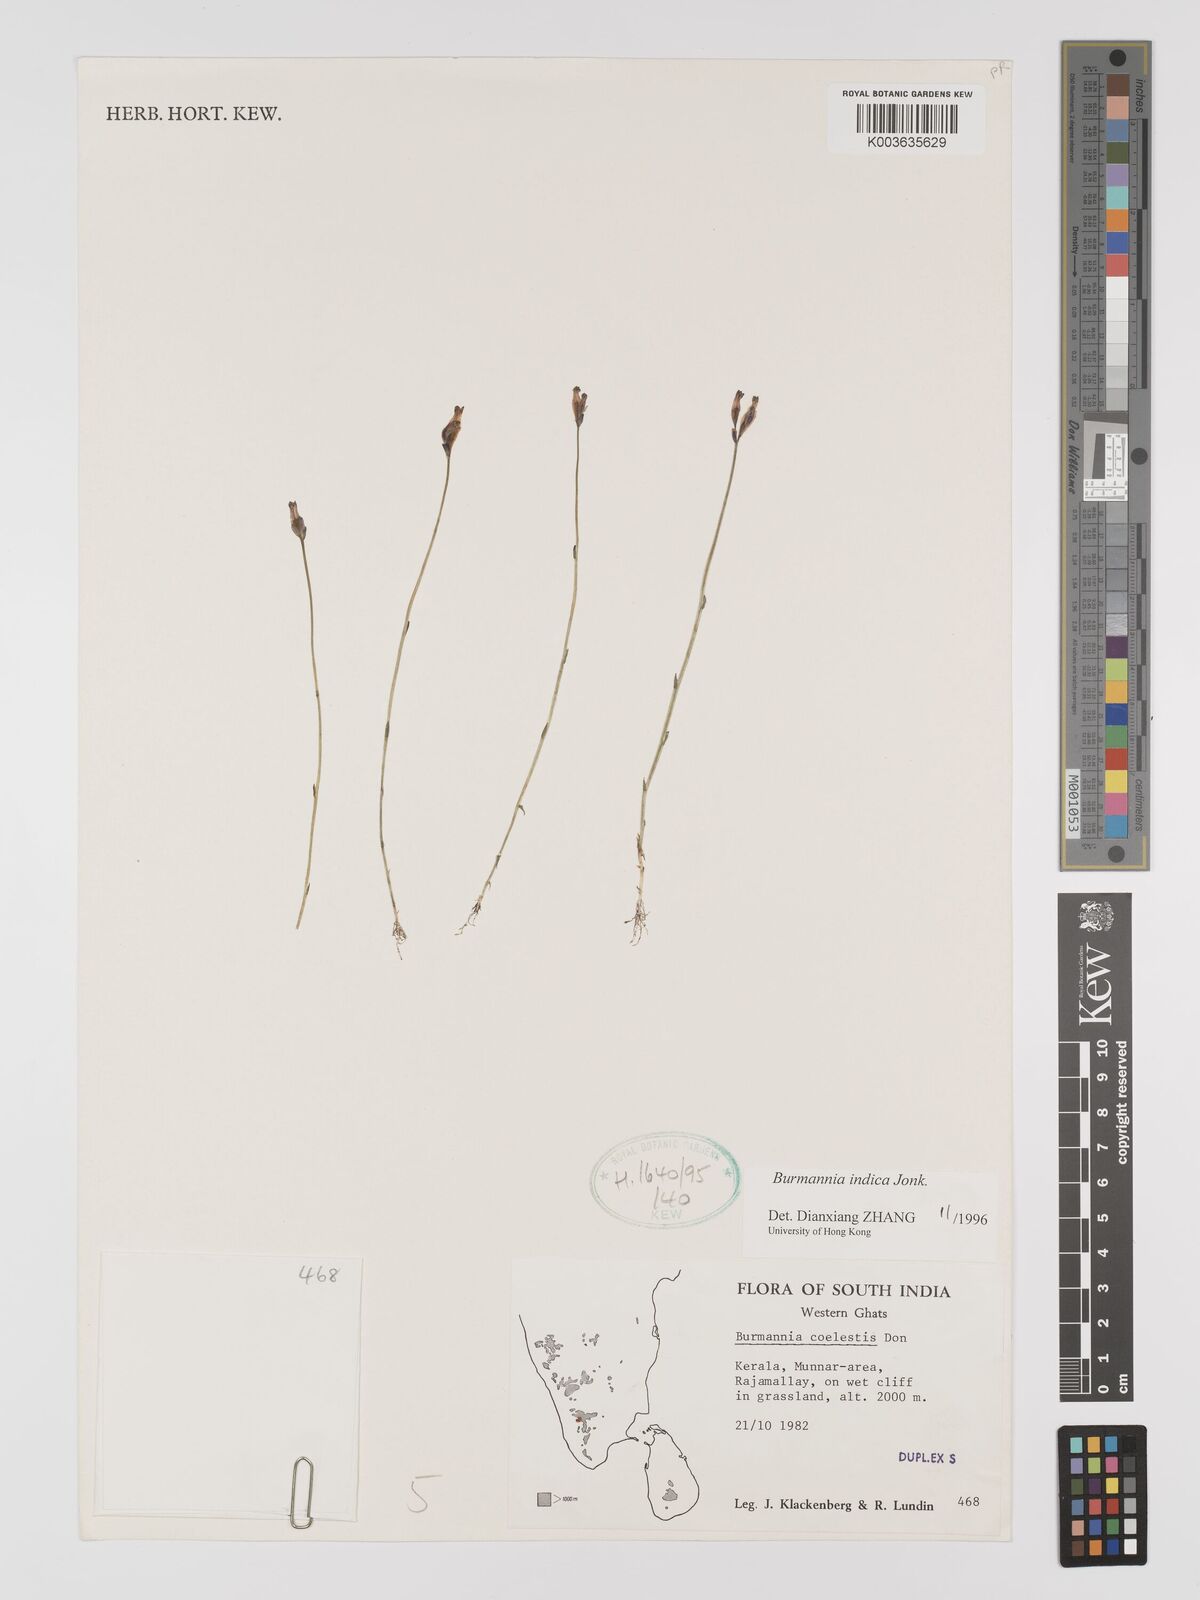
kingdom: Plantae
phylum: Tracheophyta
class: Liliopsida
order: Dioscoreales
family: Burmanniaceae
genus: Burmannia
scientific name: Burmannia indica
